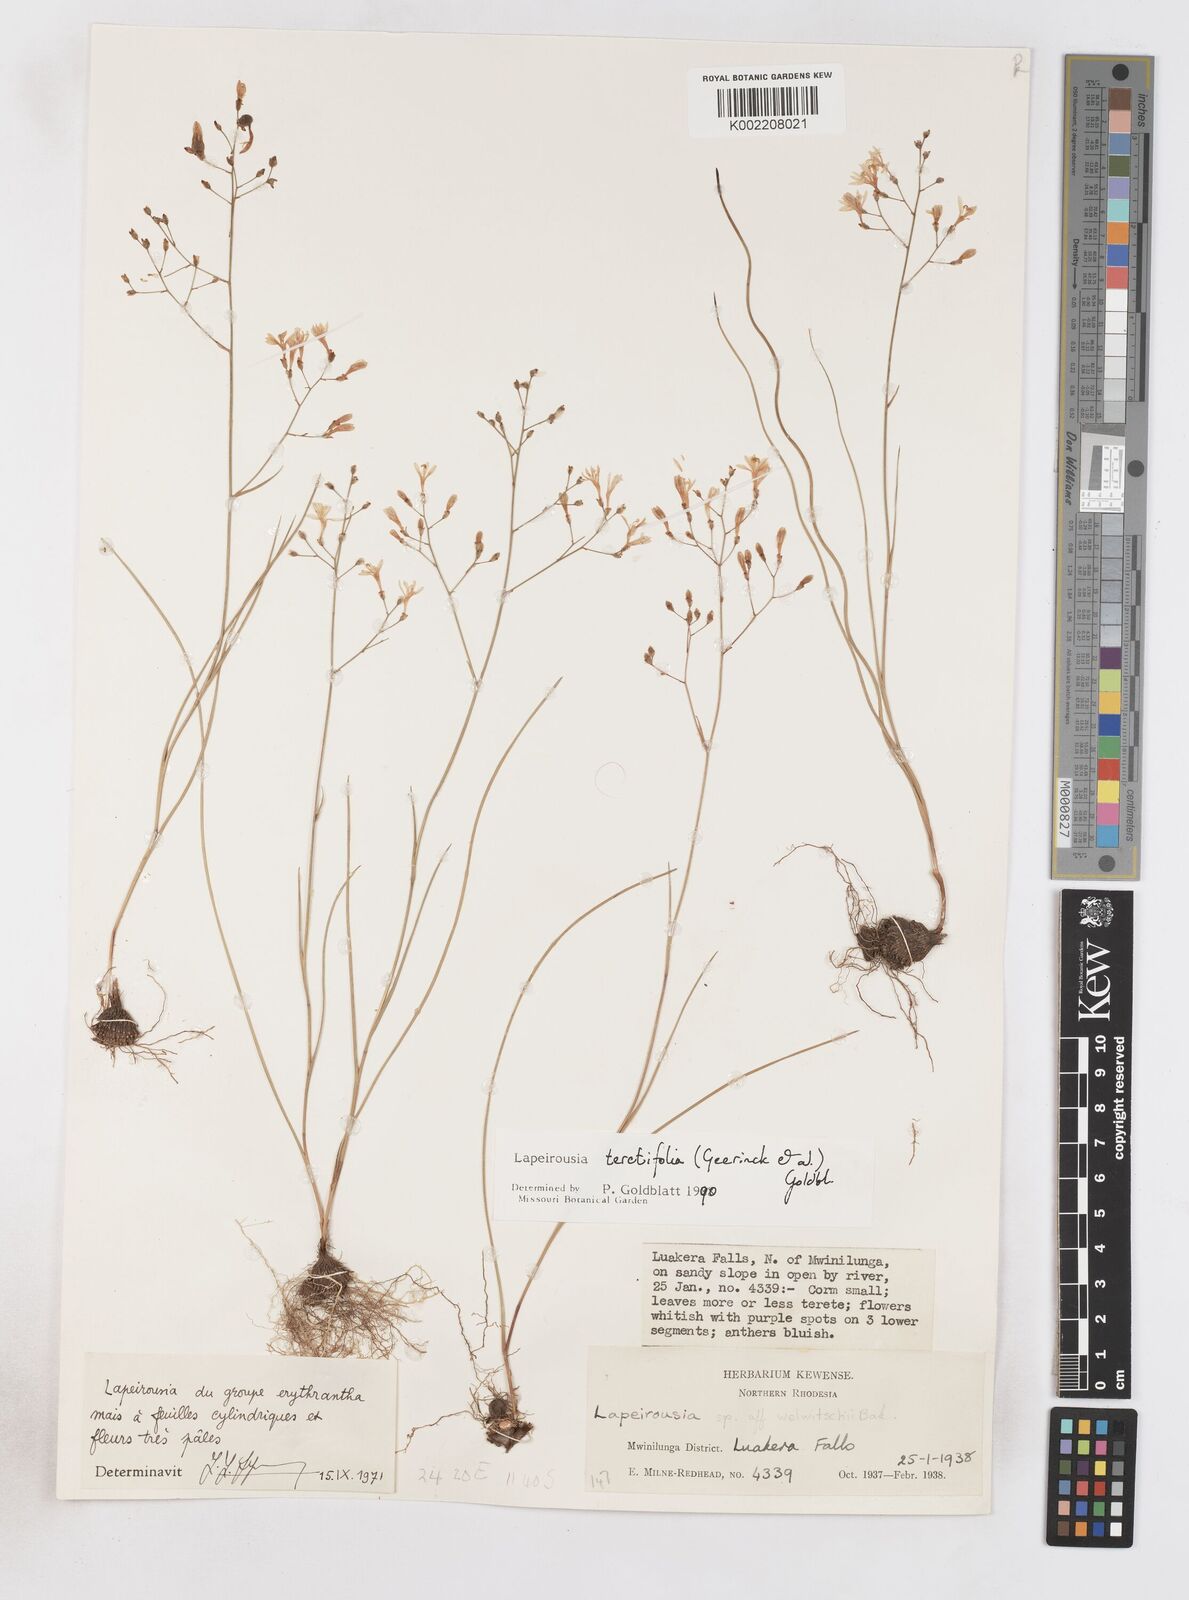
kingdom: Plantae
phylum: Tracheophyta
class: Liliopsida
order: Asparagales
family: Iridaceae
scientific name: Iridaceae
